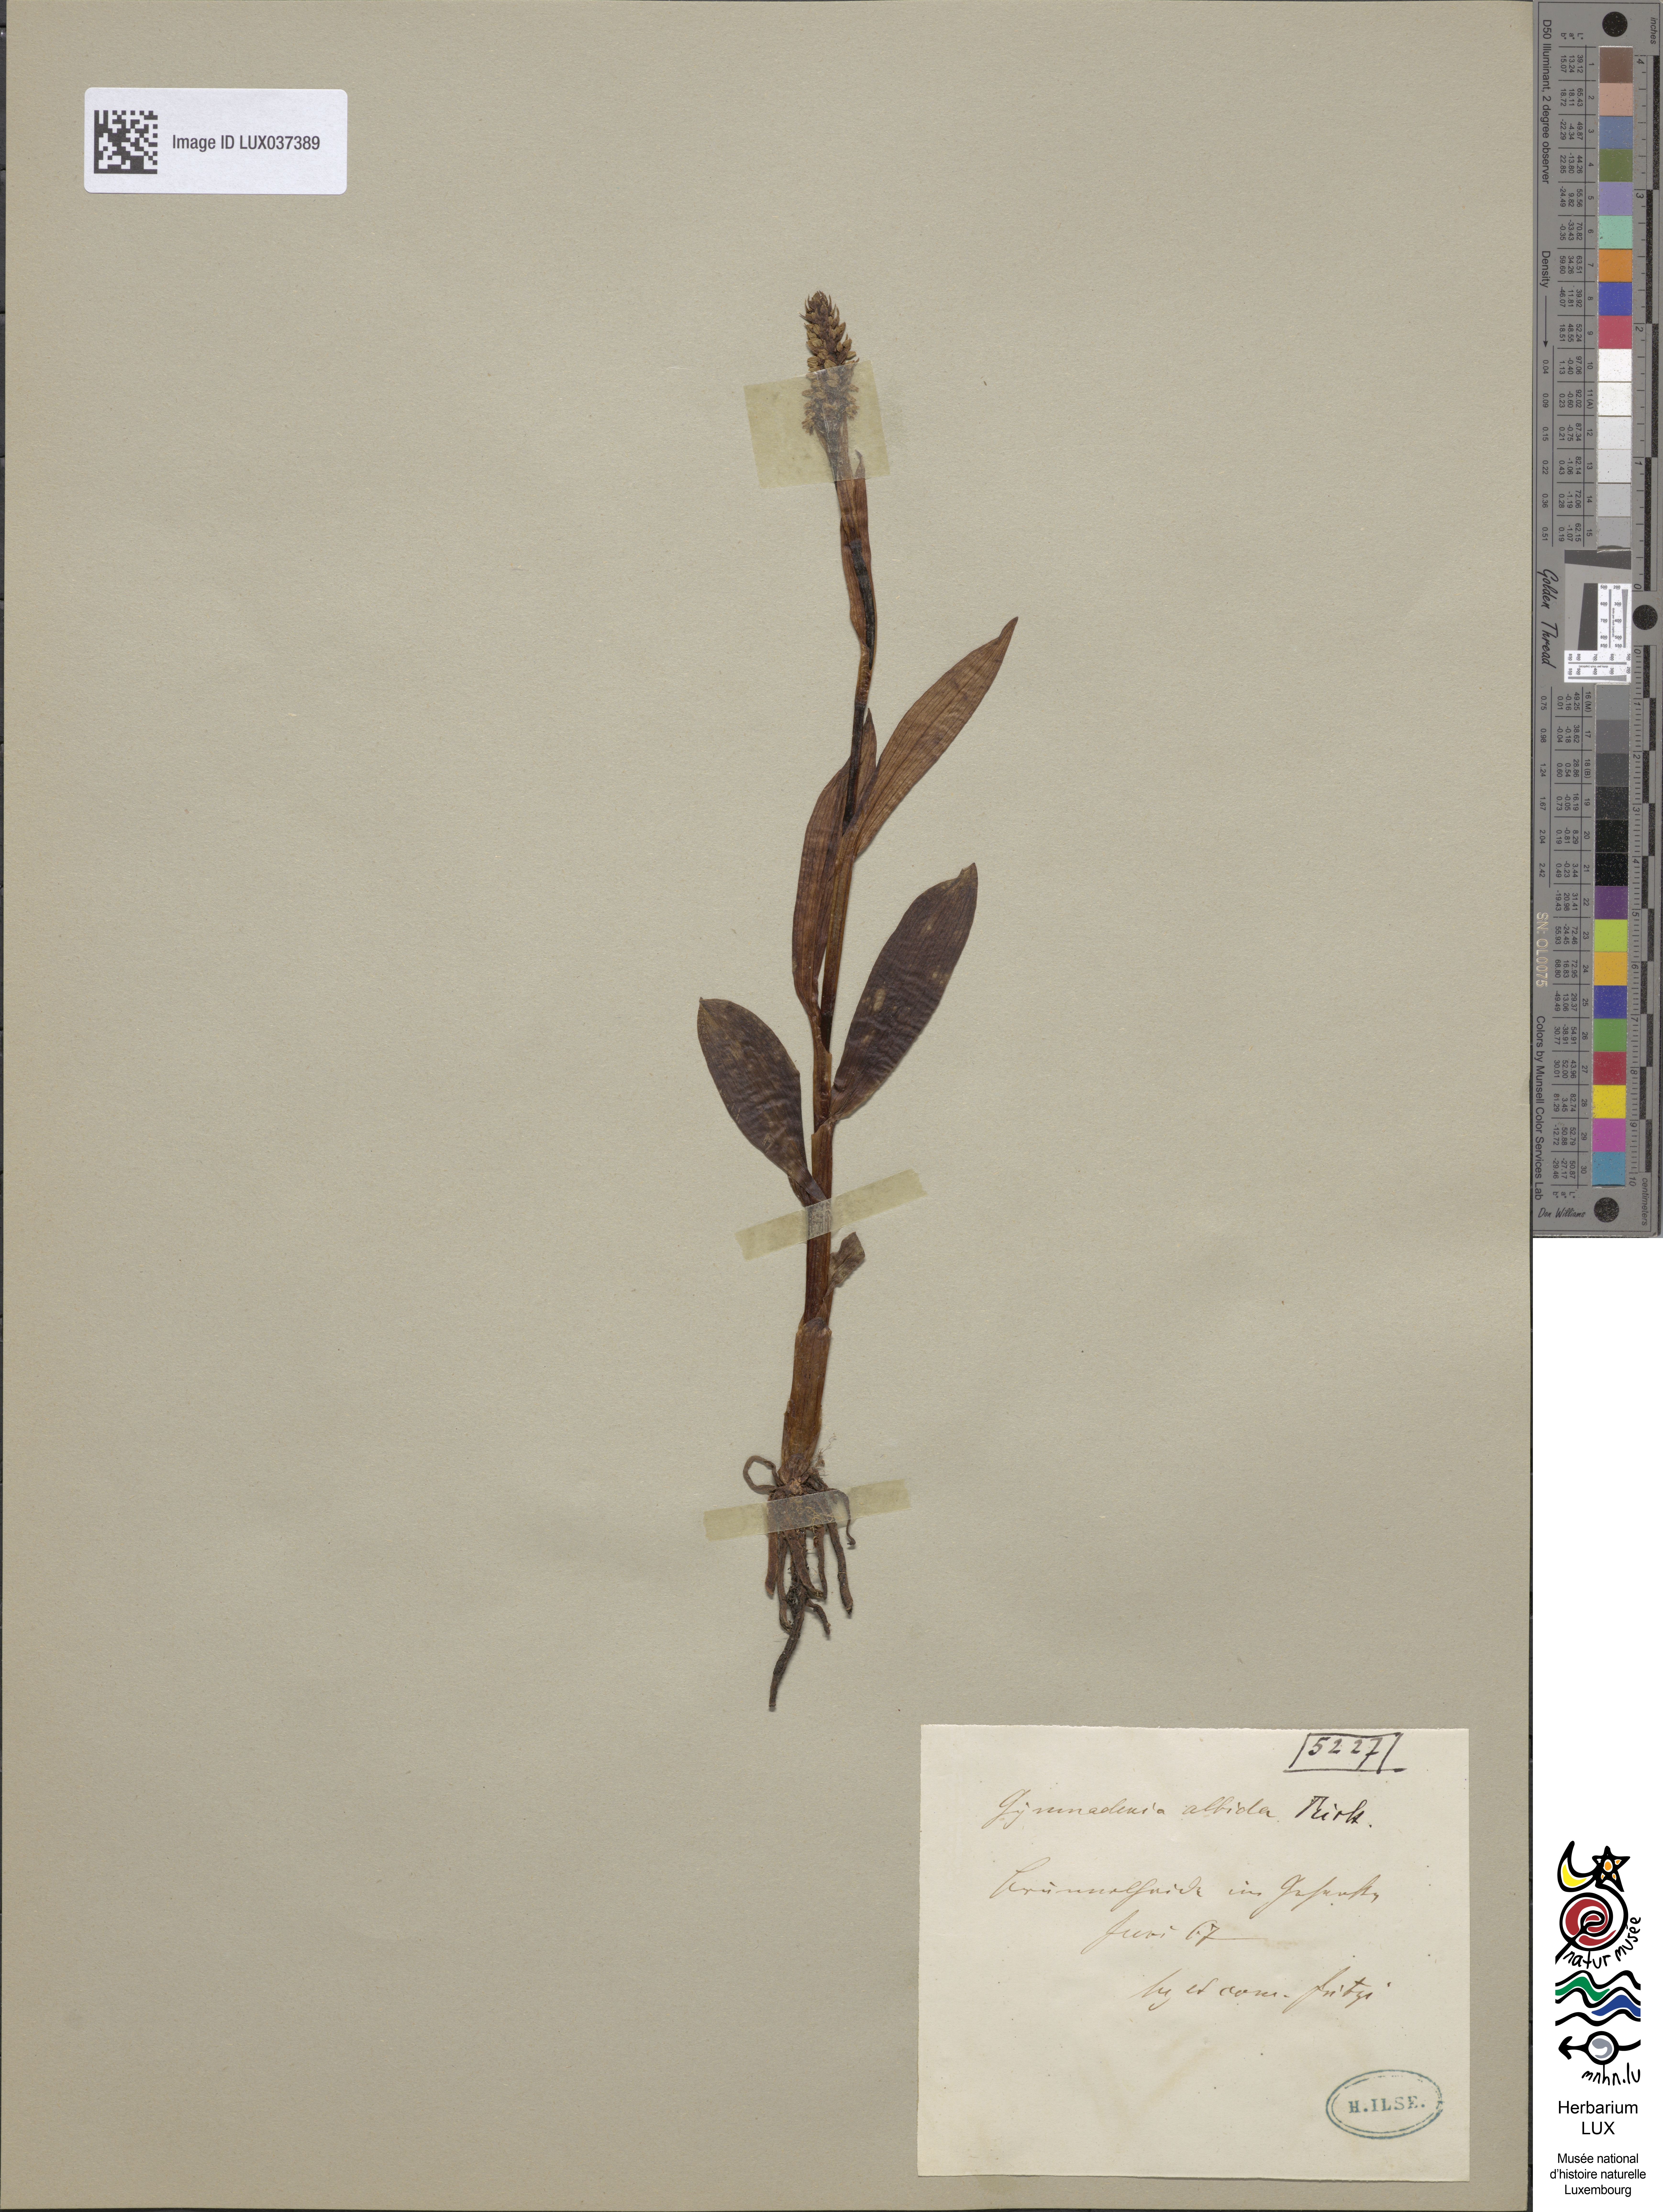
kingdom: Plantae
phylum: Tracheophyta
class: Liliopsida
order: Asparagales
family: Orchidaceae
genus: Pseudorchis
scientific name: Pseudorchis albida
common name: Small-white orchid
